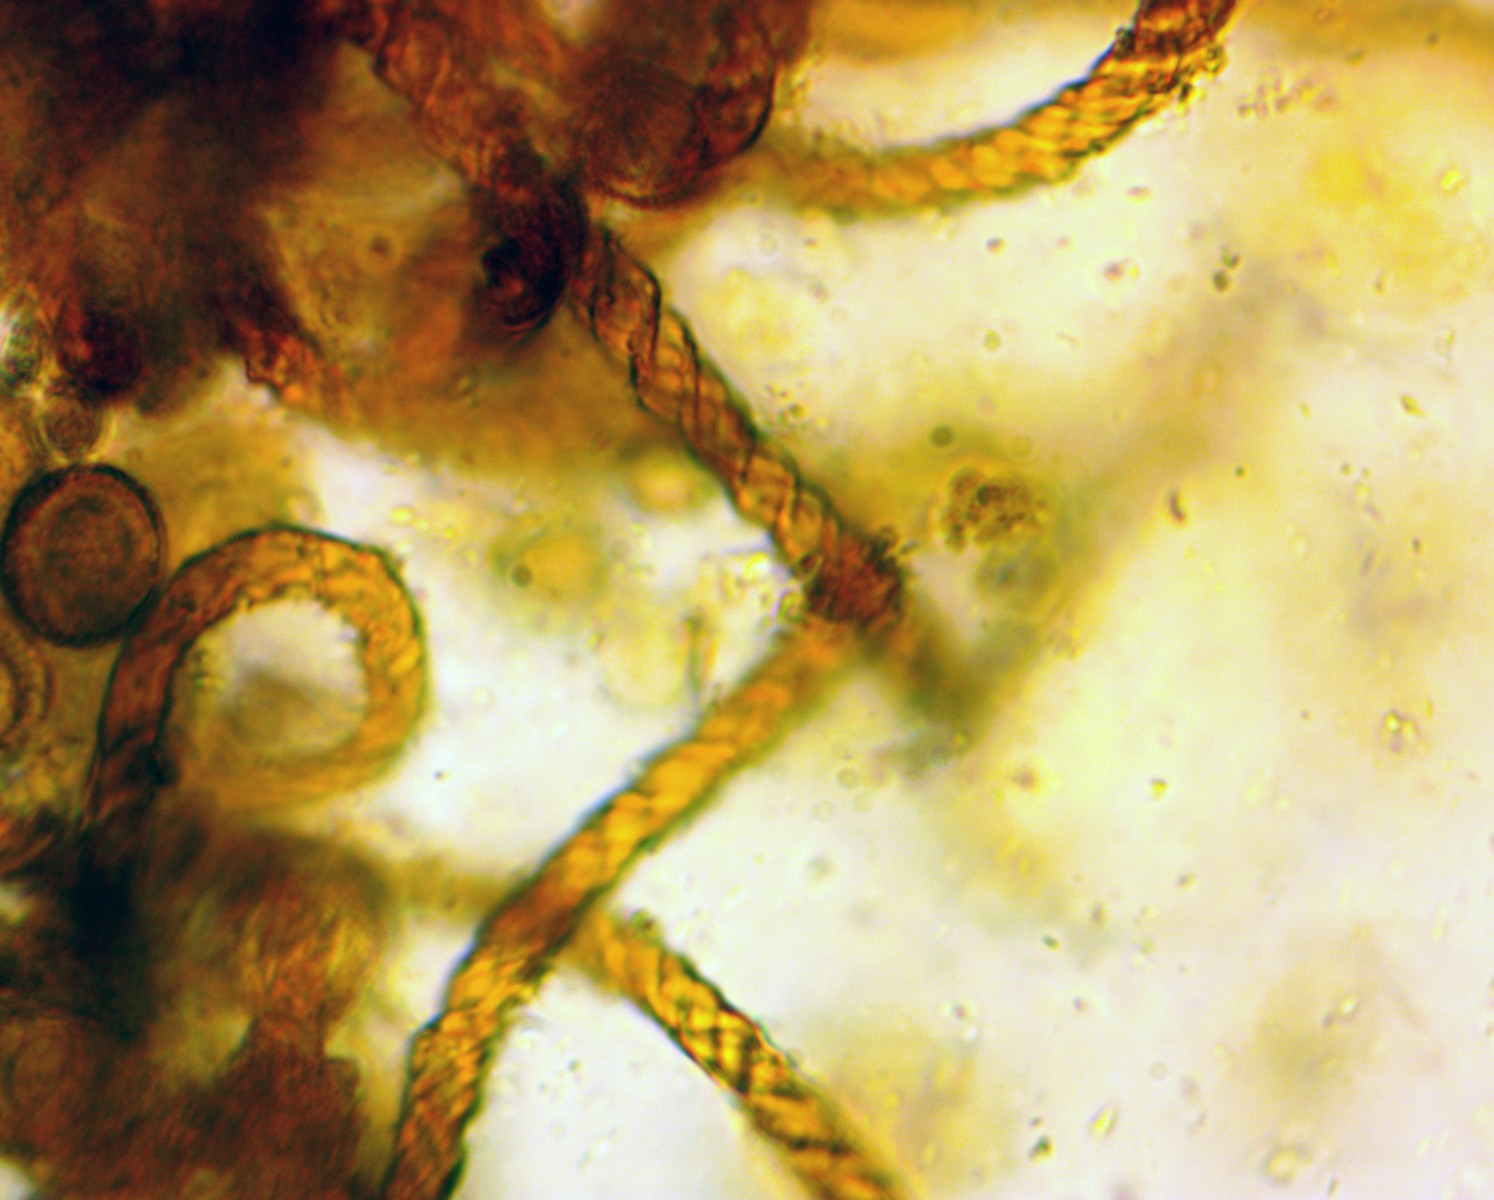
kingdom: Protozoa
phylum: Mycetozoa
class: Myxomycetes
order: Trichiales
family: Trichiaceae
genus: Metatrichia
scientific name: Metatrichia vesparia
